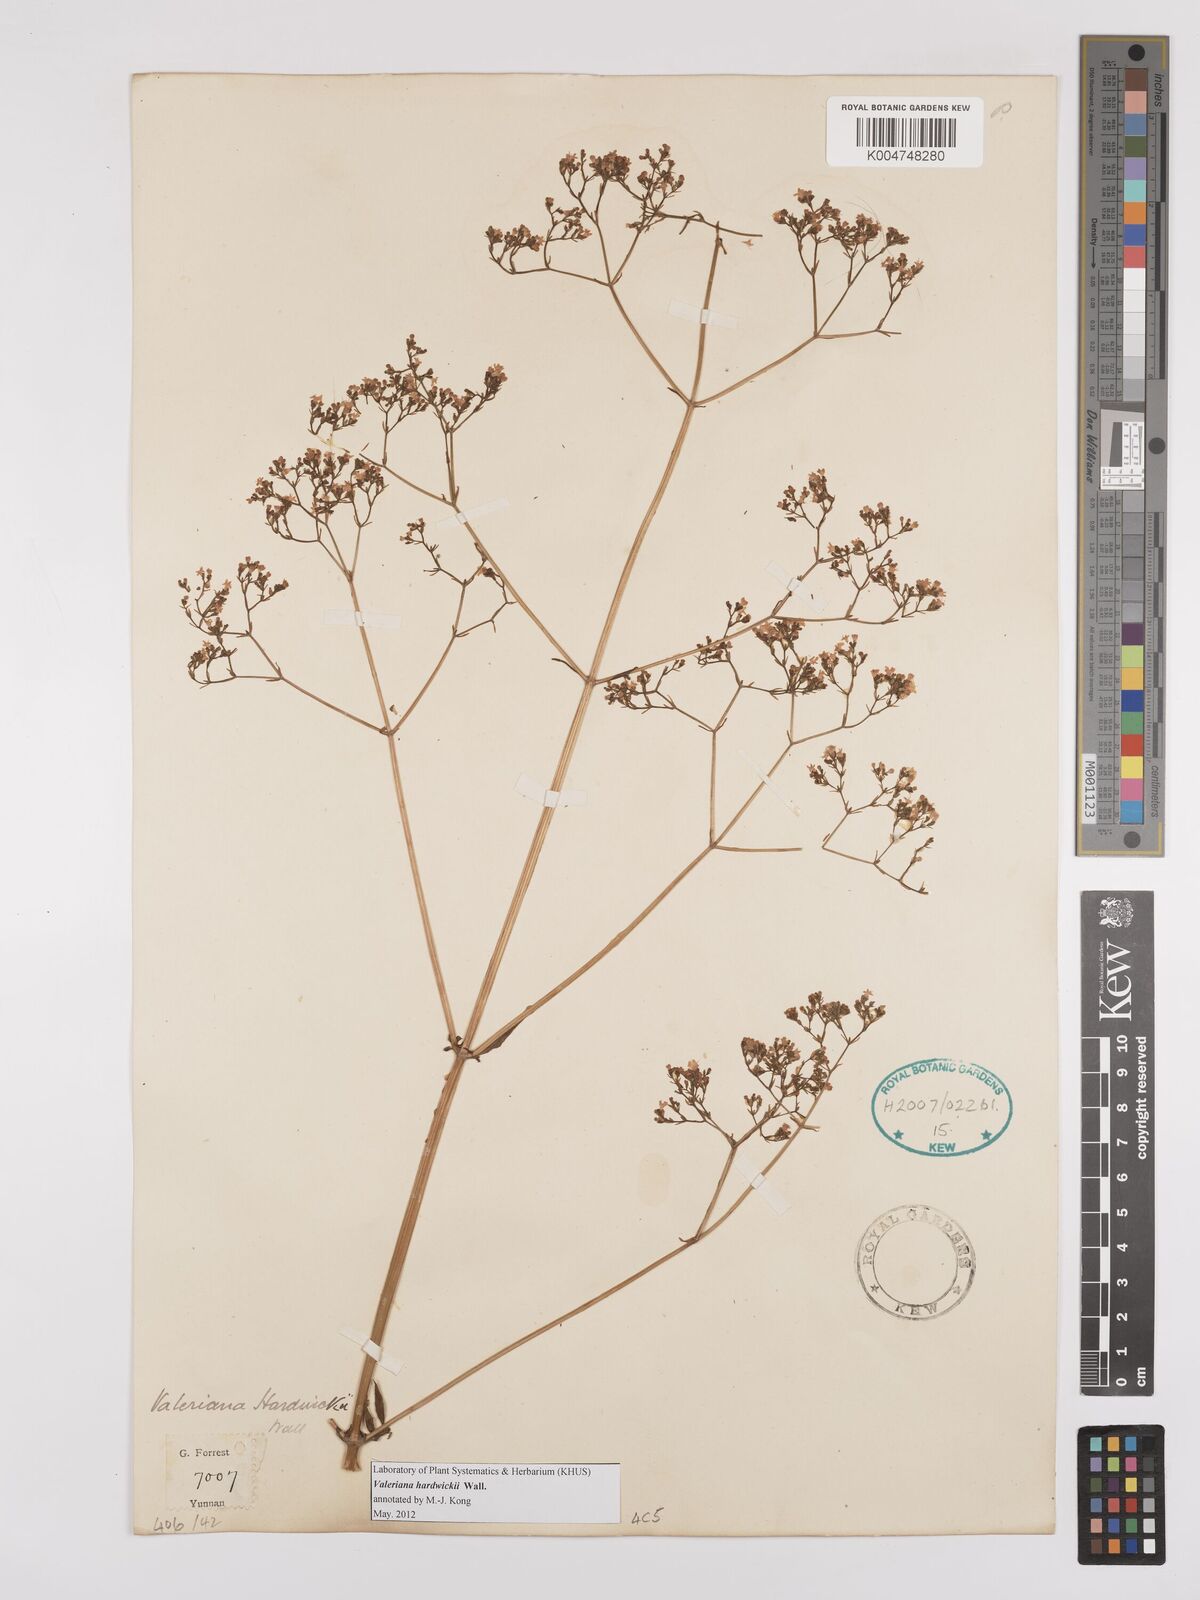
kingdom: Plantae
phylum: Tracheophyta
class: Magnoliopsida
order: Dipsacales
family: Caprifoliaceae
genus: Valeriana
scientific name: Valeriana hardwickei
